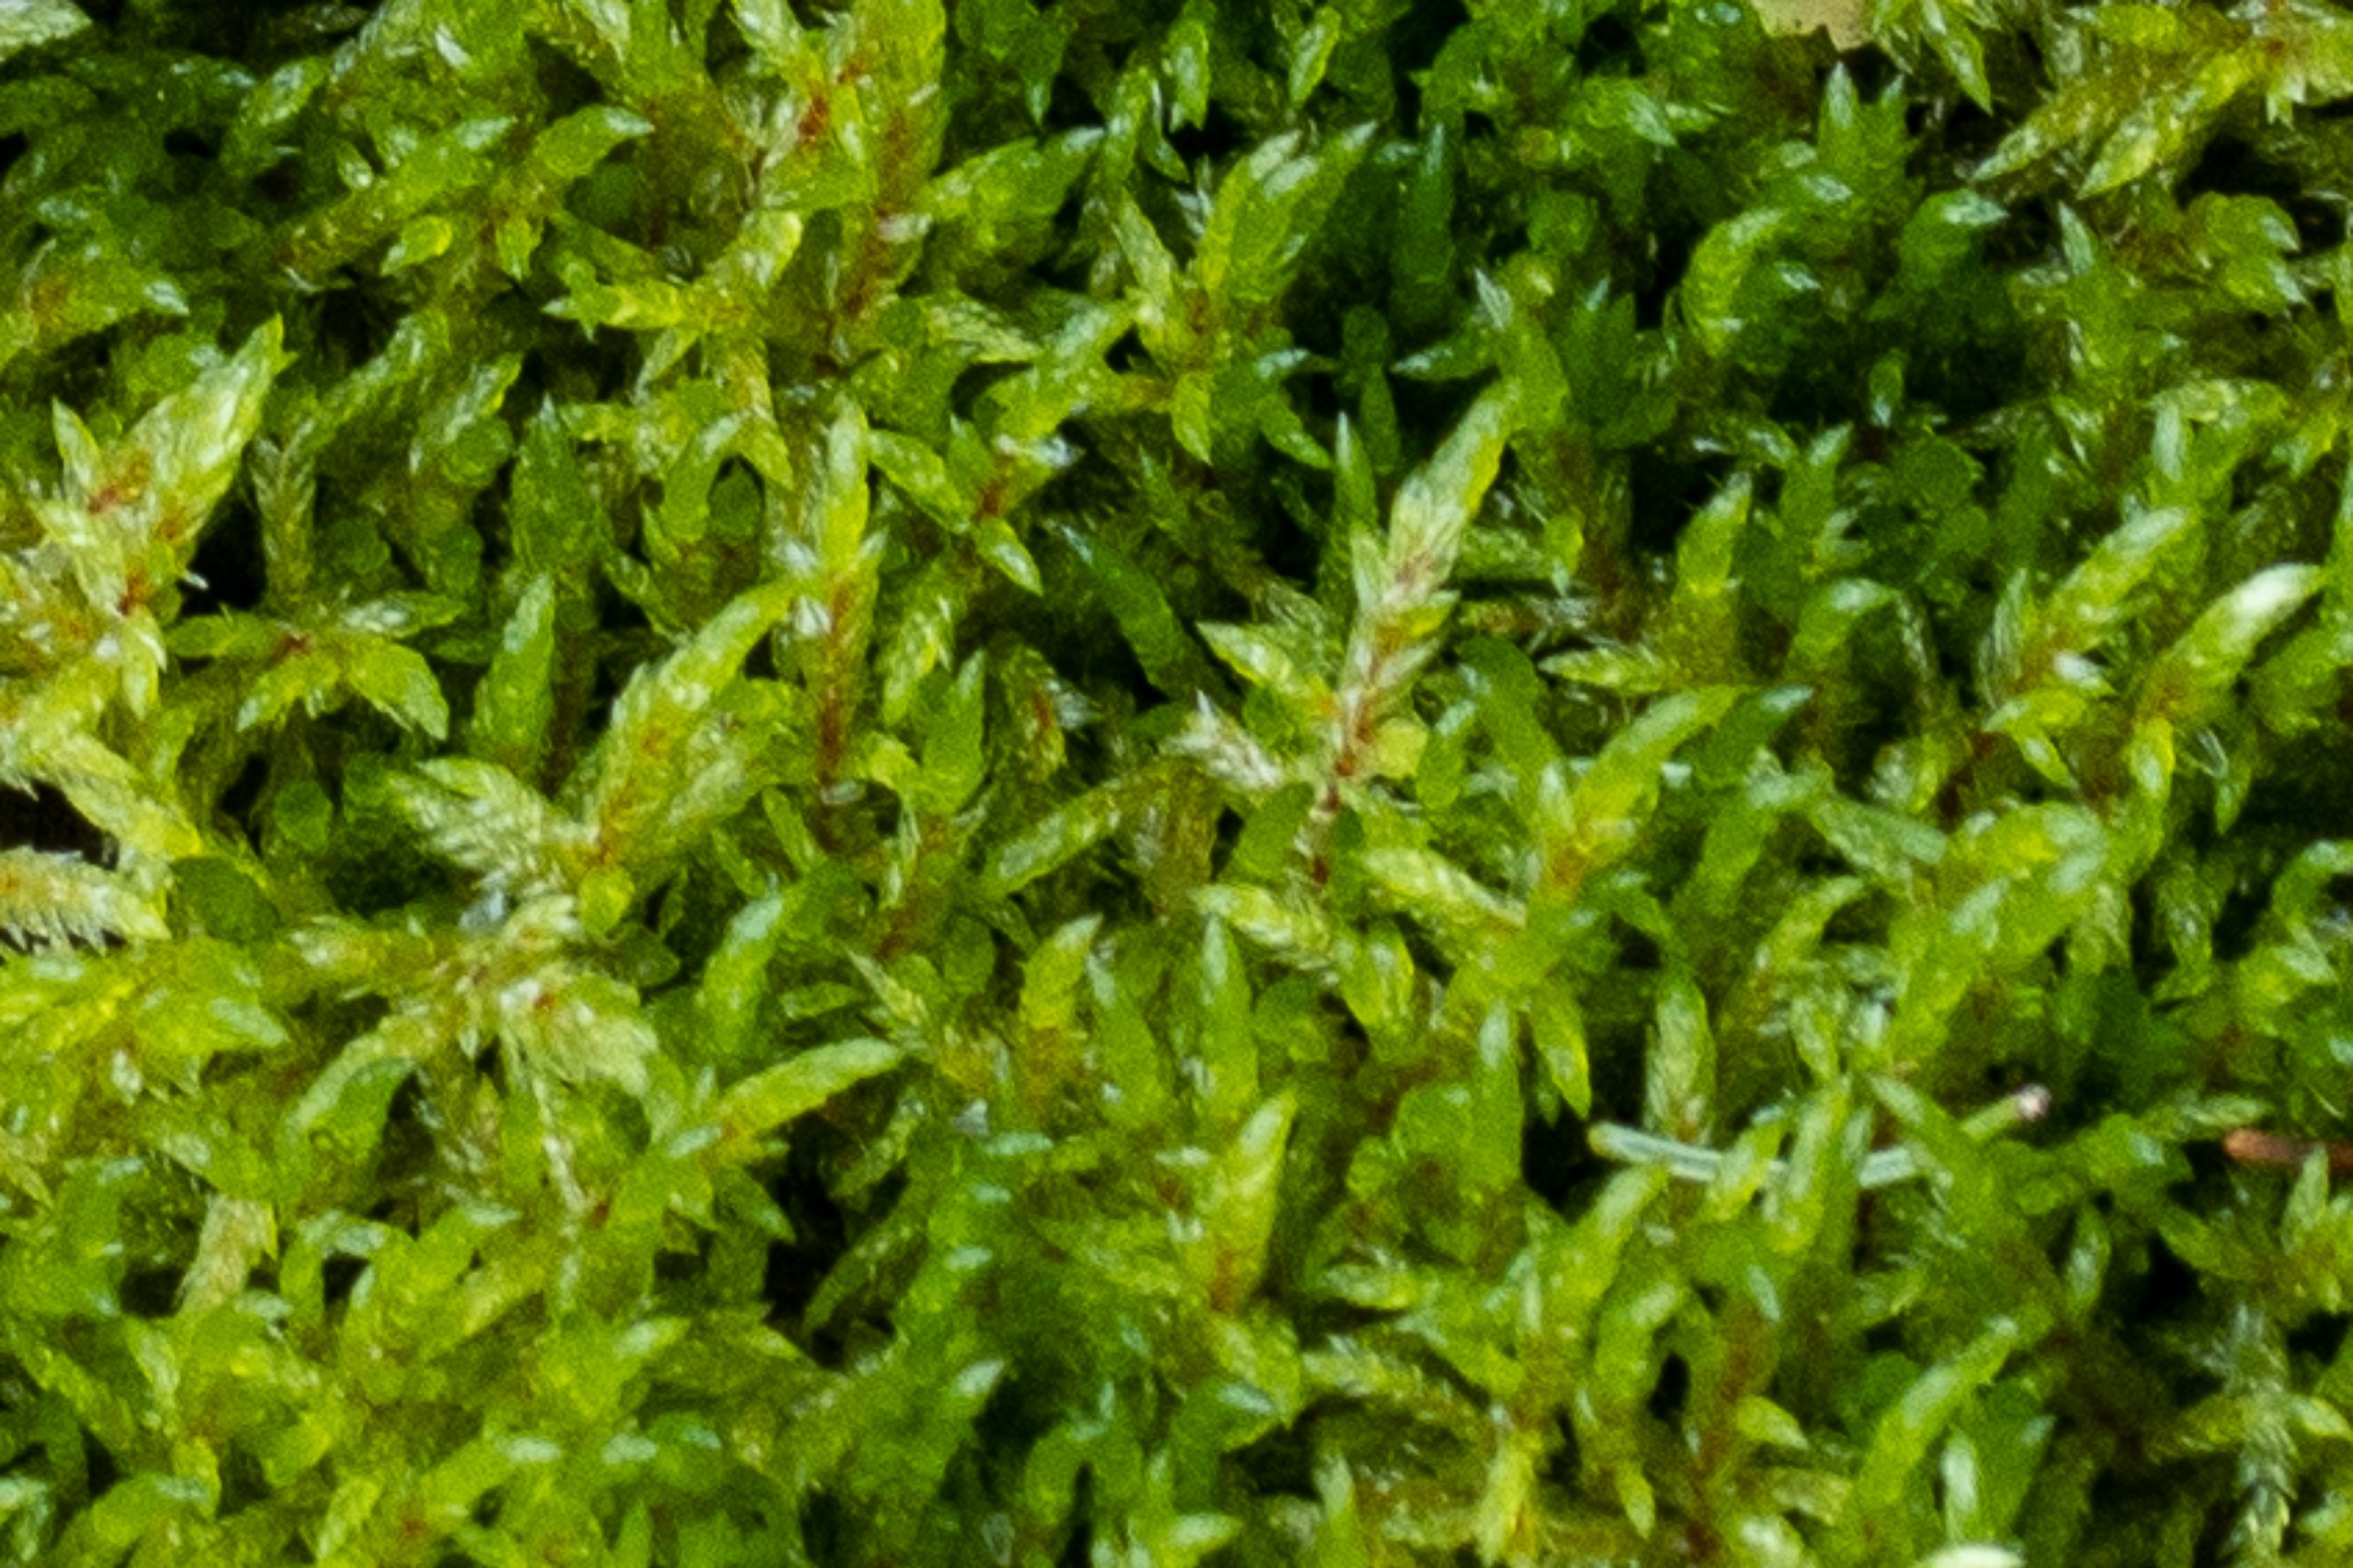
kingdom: Plantae
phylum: Bryophyta
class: Bryopsida
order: Hypnales
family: Hylocomiaceae
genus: Pleurozium
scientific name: Pleurozium schreberi
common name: Trind fyrremos
